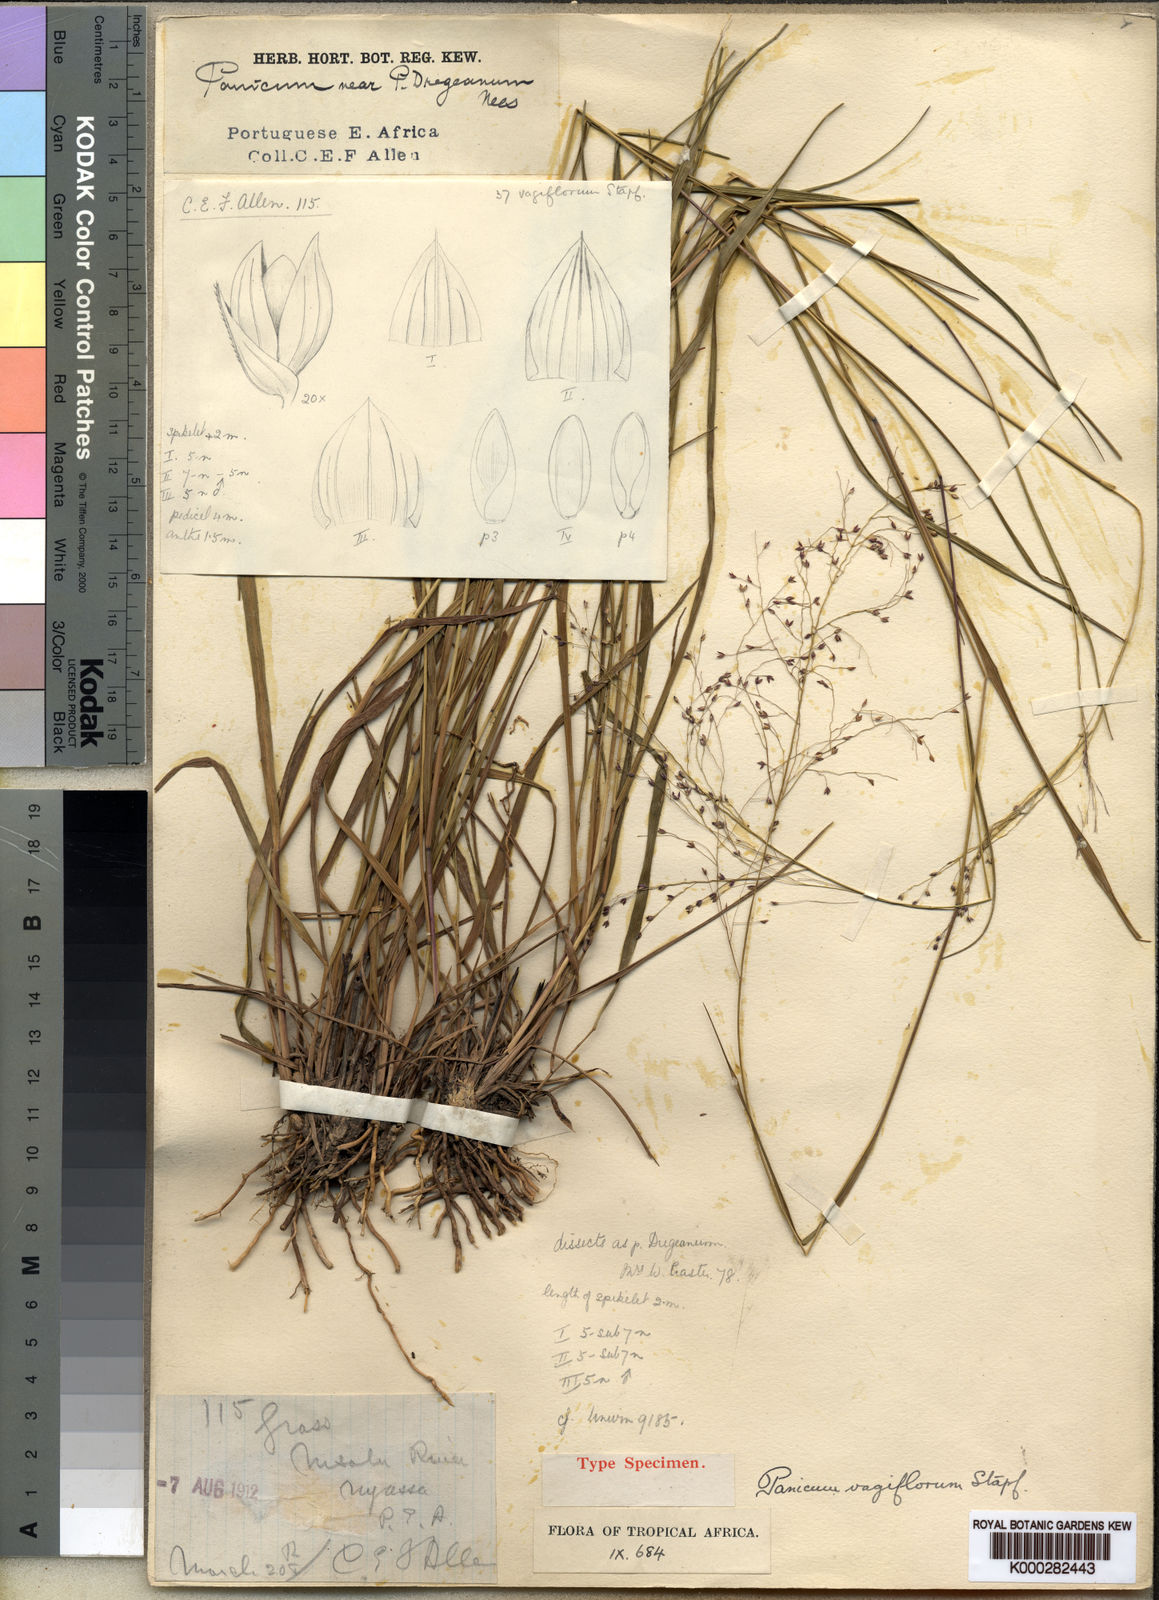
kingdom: Plantae
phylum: Tracheophyta
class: Liliopsida
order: Poales
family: Poaceae
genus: Panicum
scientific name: Panicum graciliflorum
